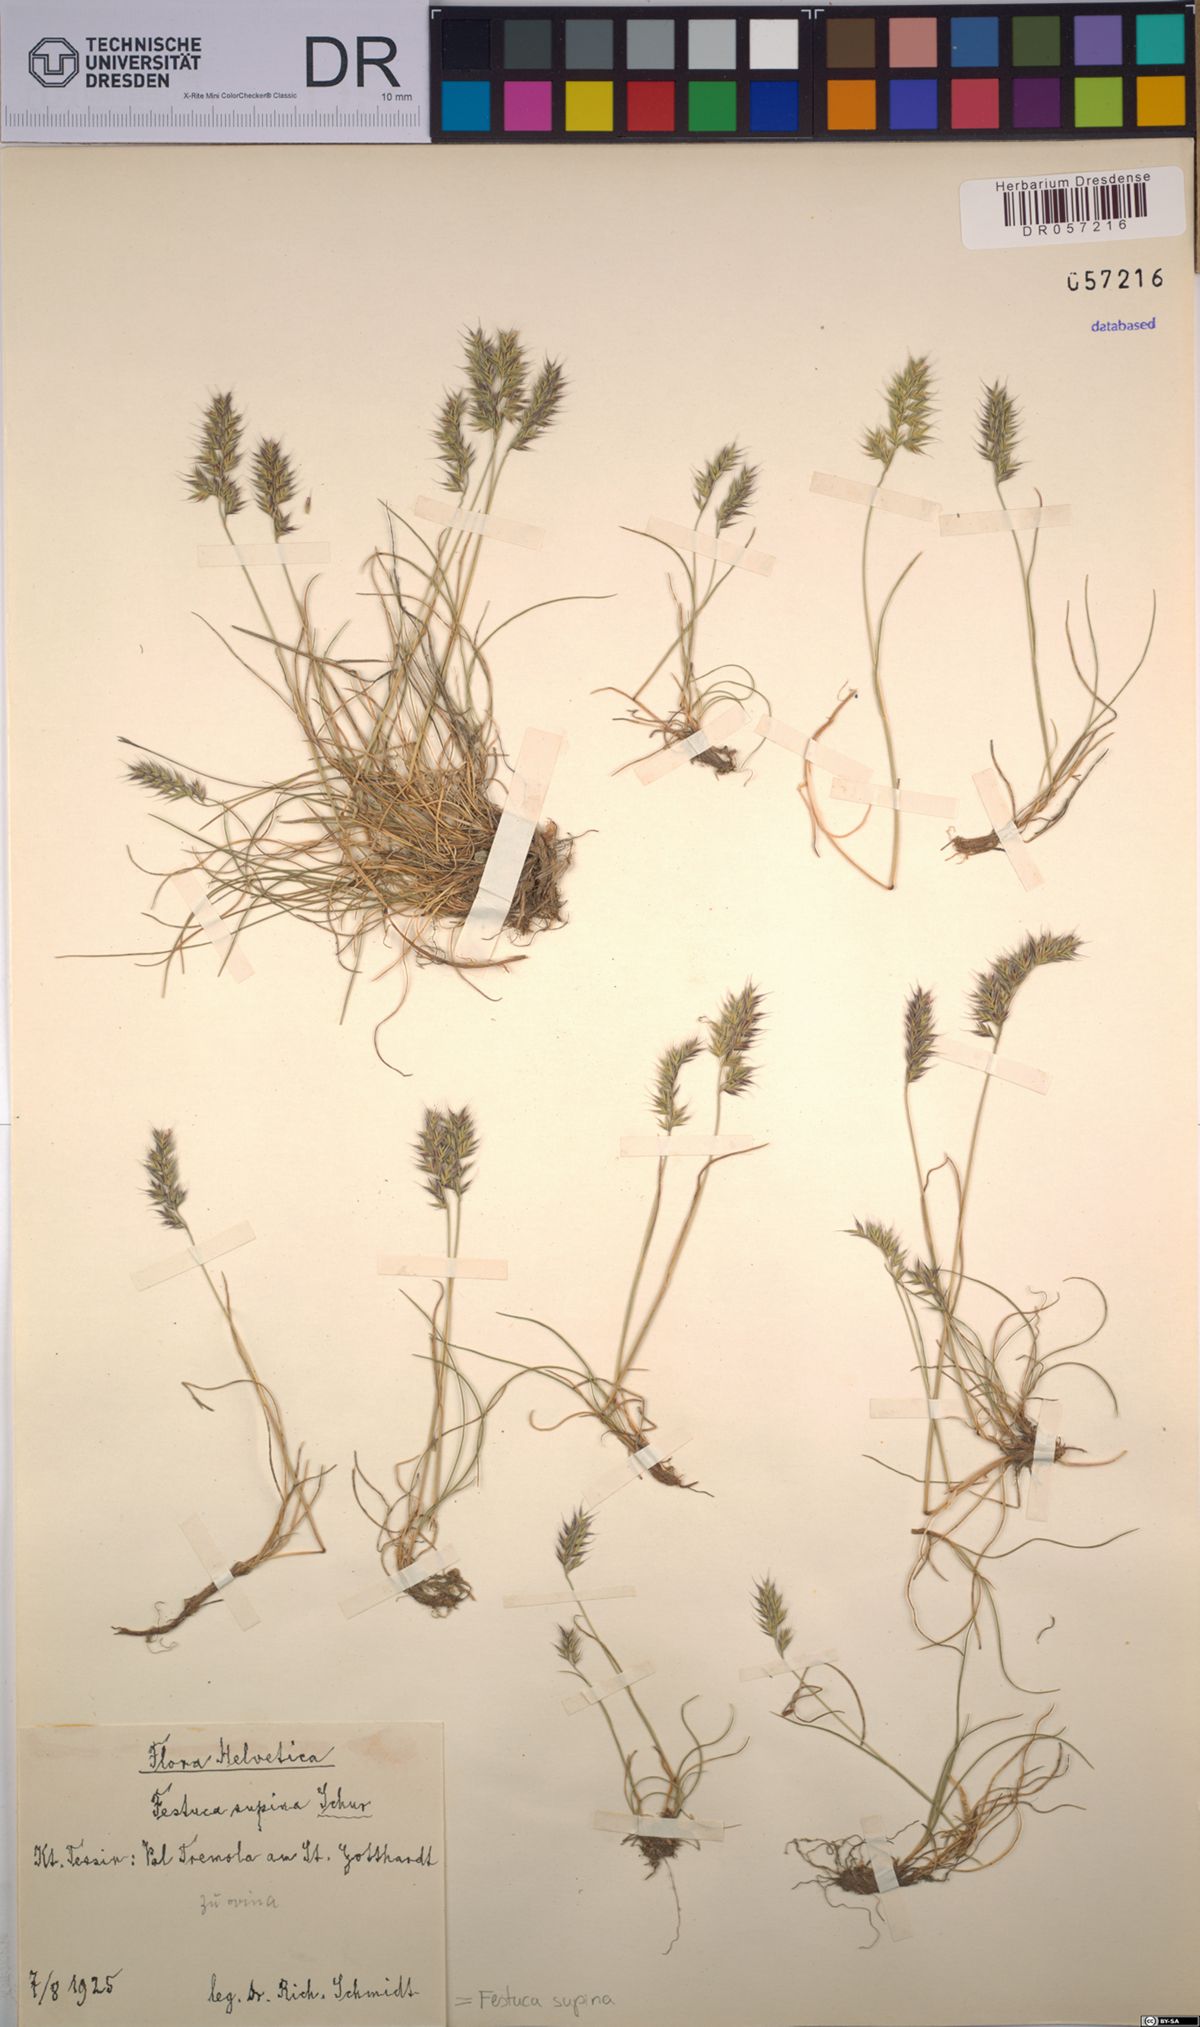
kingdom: Plantae
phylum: Tracheophyta
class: Liliopsida
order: Poales
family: Poaceae
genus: Festuca
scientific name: Festuca airoides
